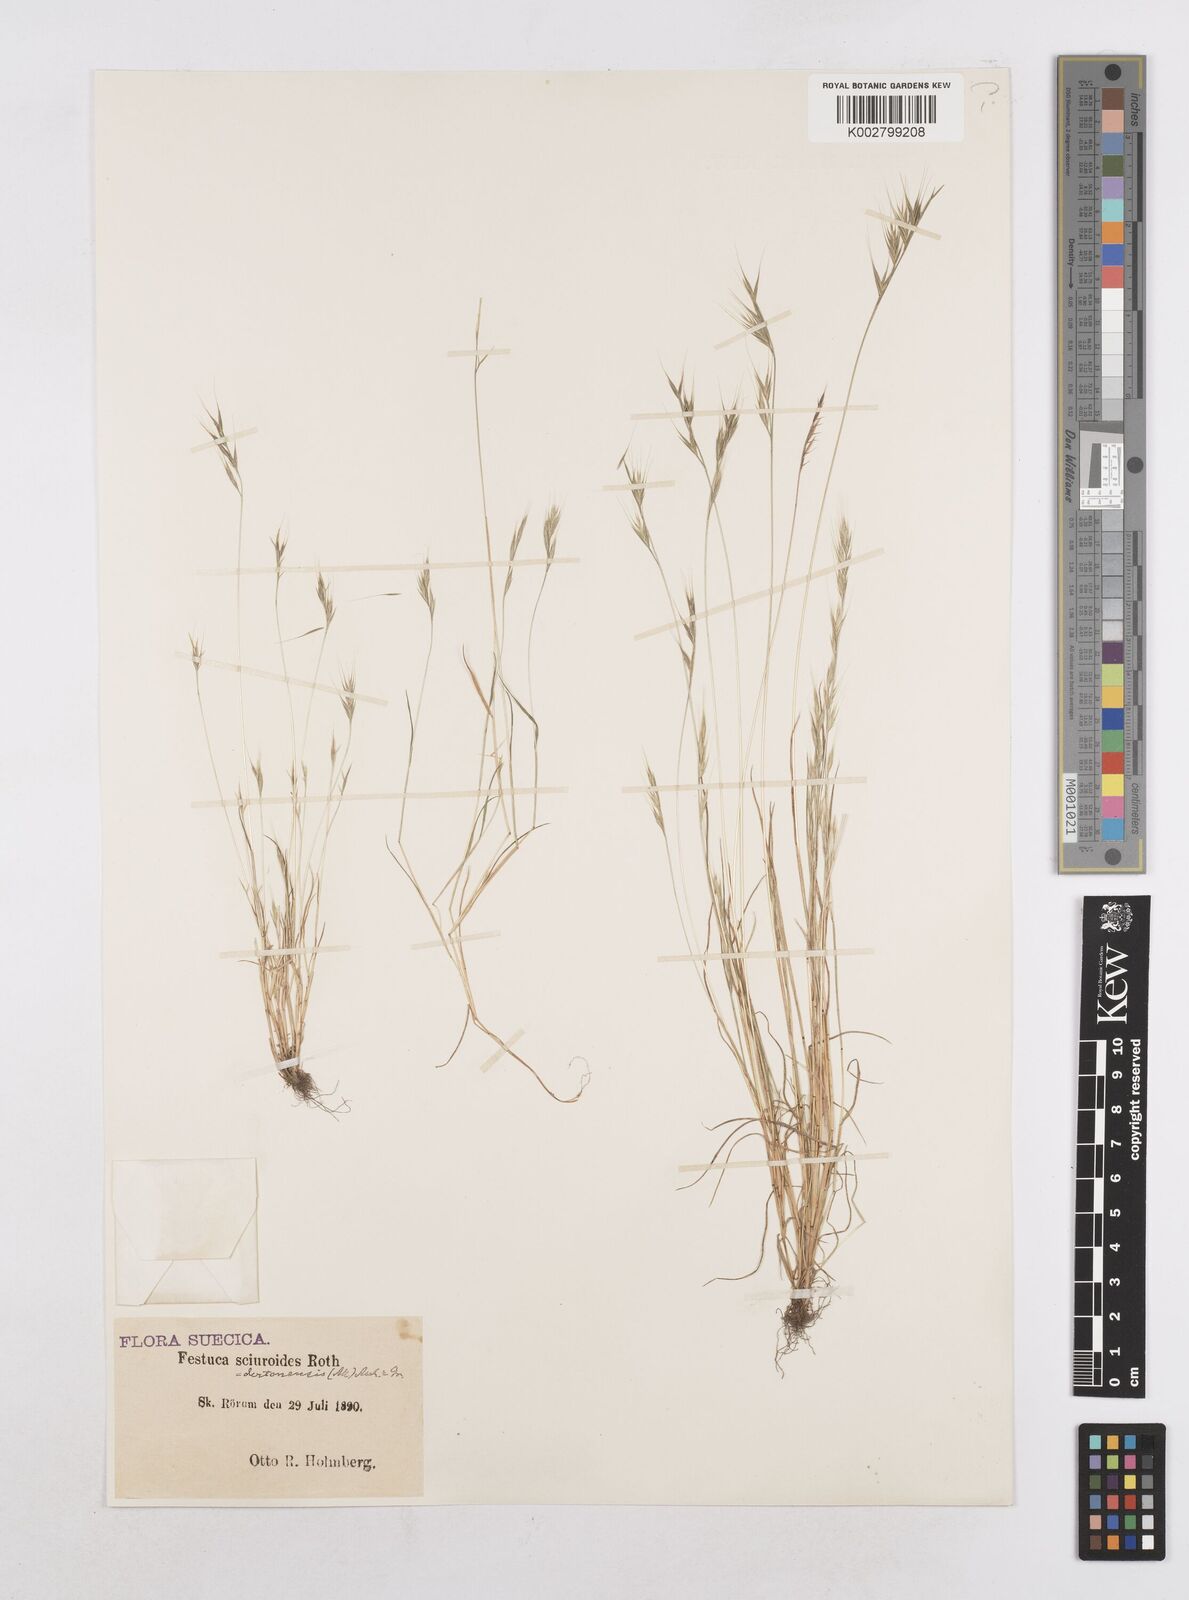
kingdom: Plantae
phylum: Tracheophyta
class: Liliopsida
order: Poales
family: Poaceae
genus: Festuca
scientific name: Festuca bromoides
